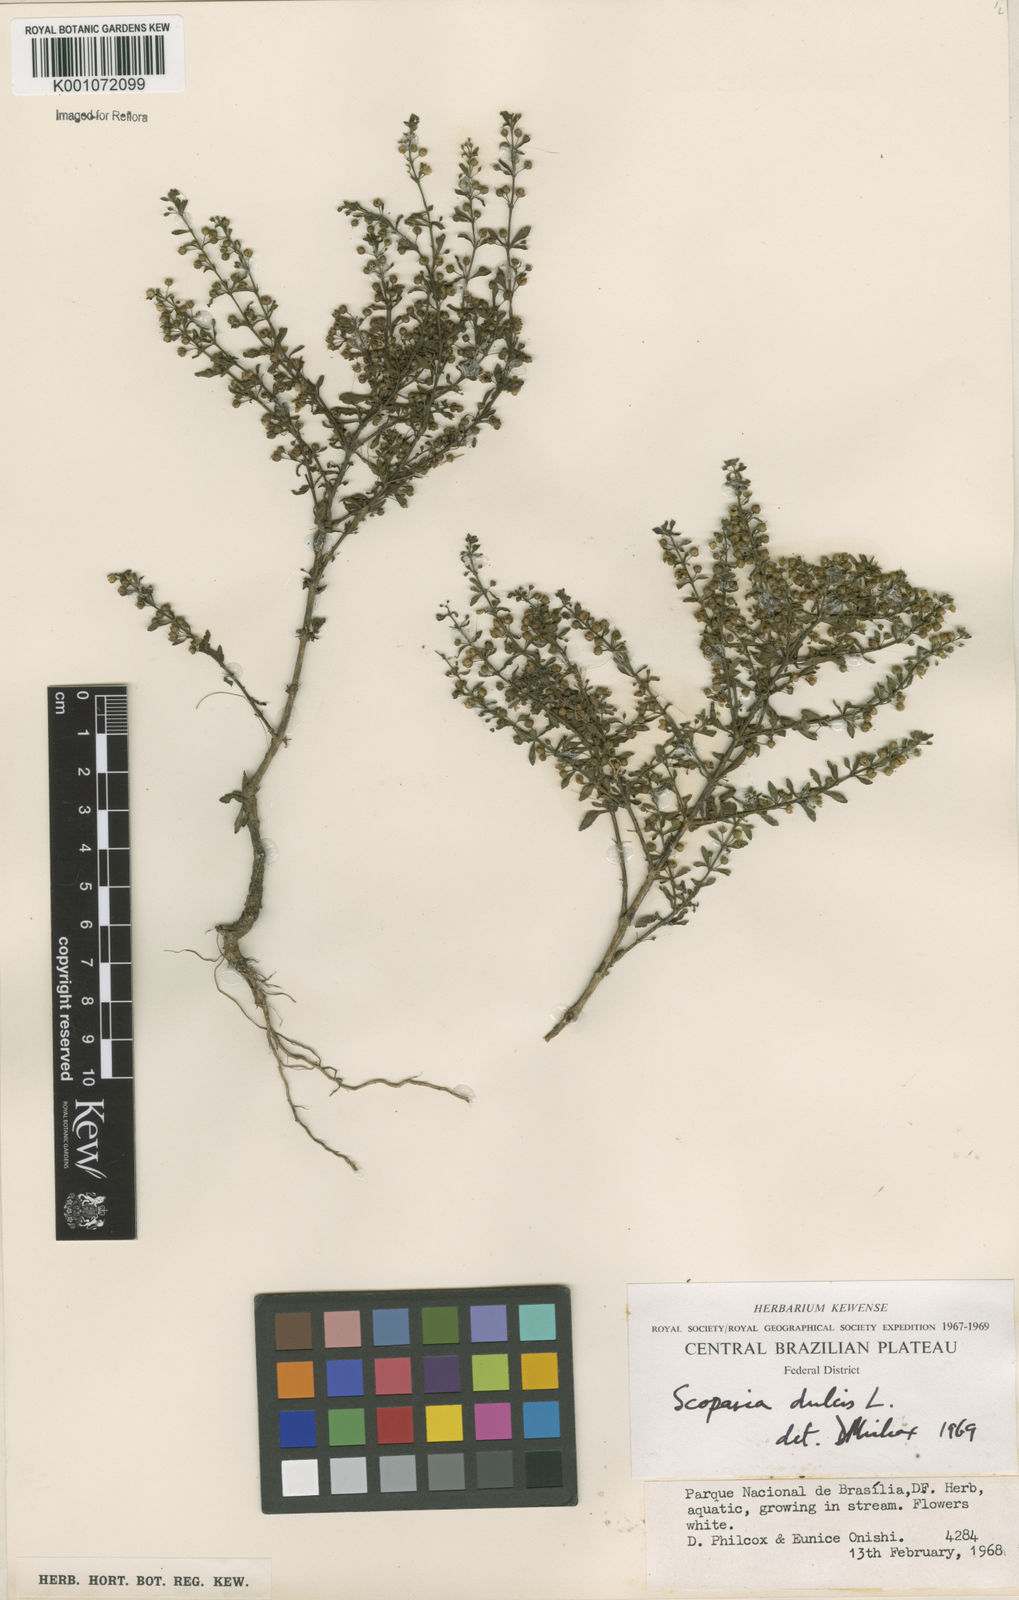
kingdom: Plantae
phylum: Tracheophyta
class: Magnoliopsida
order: Lamiales
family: Plantaginaceae
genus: Scoparia
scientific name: Scoparia dulcis
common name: Scoparia-weed
